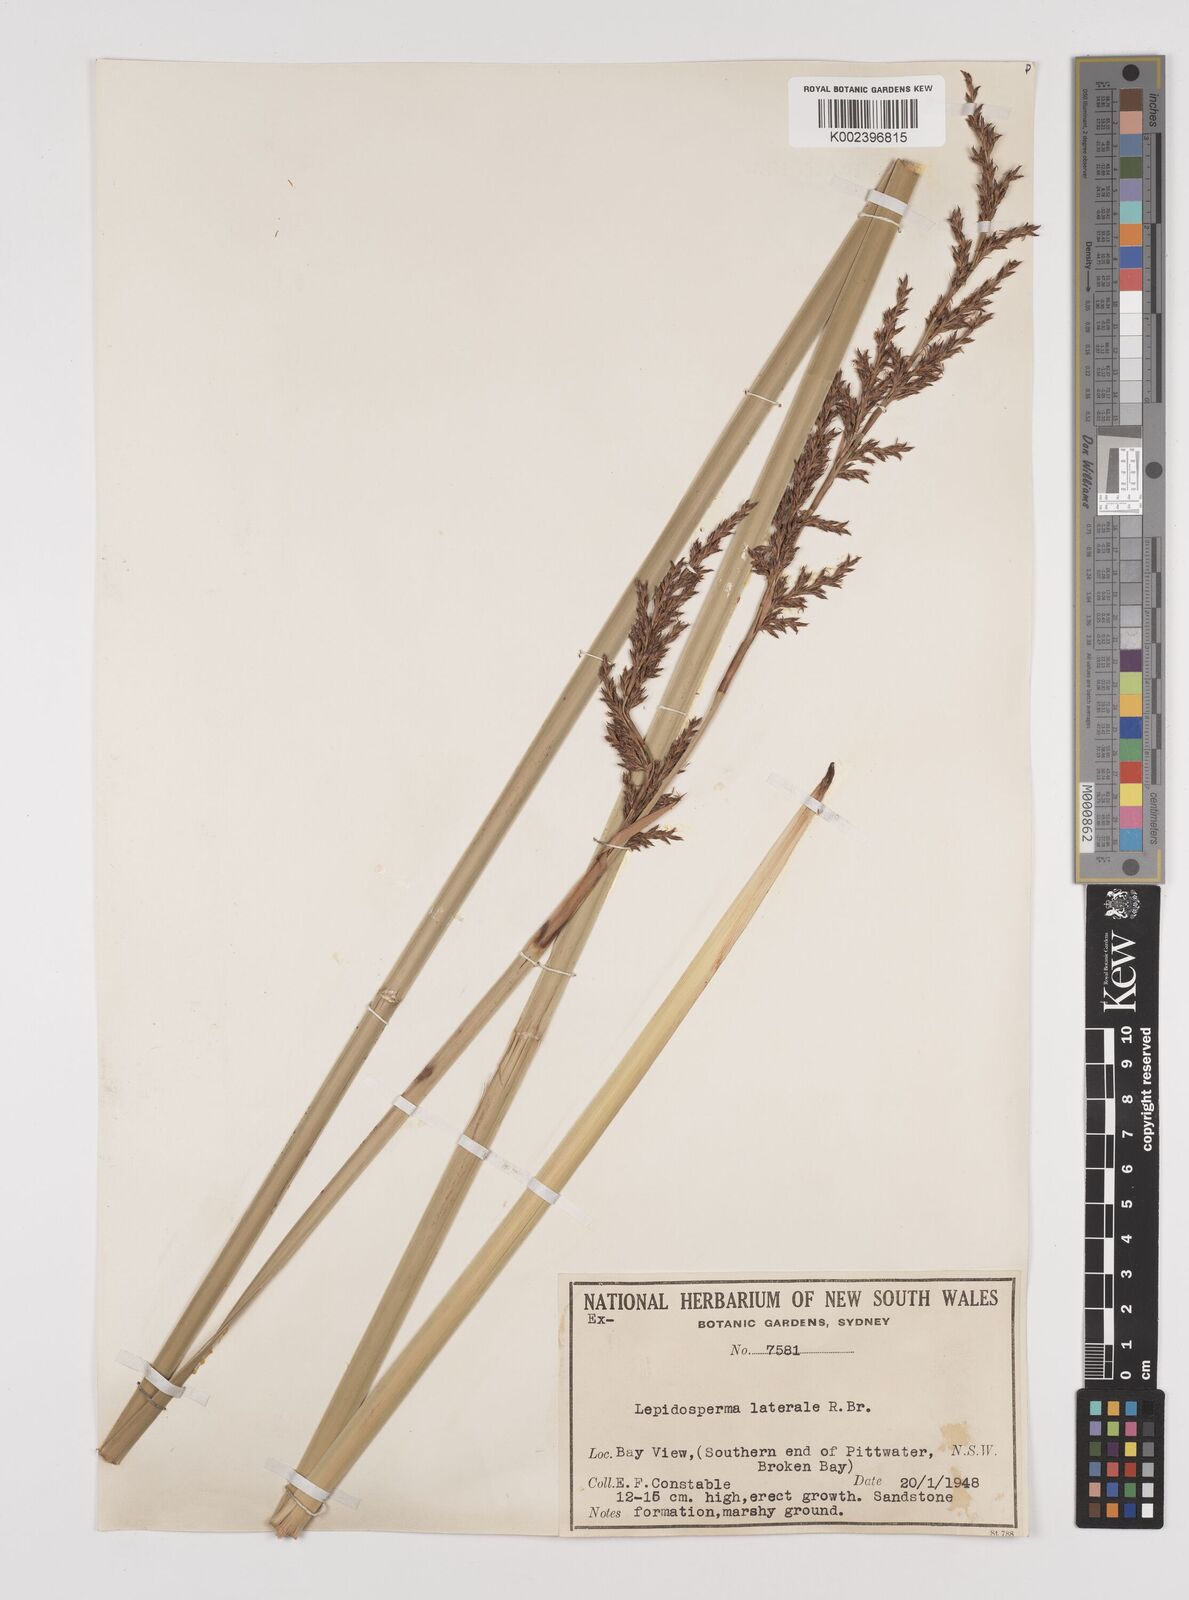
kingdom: Plantae
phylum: Tracheophyta
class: Liliopsida
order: Poales
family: Cyperaceae
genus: Lepidosperma
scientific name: Lepidosperma laterale
